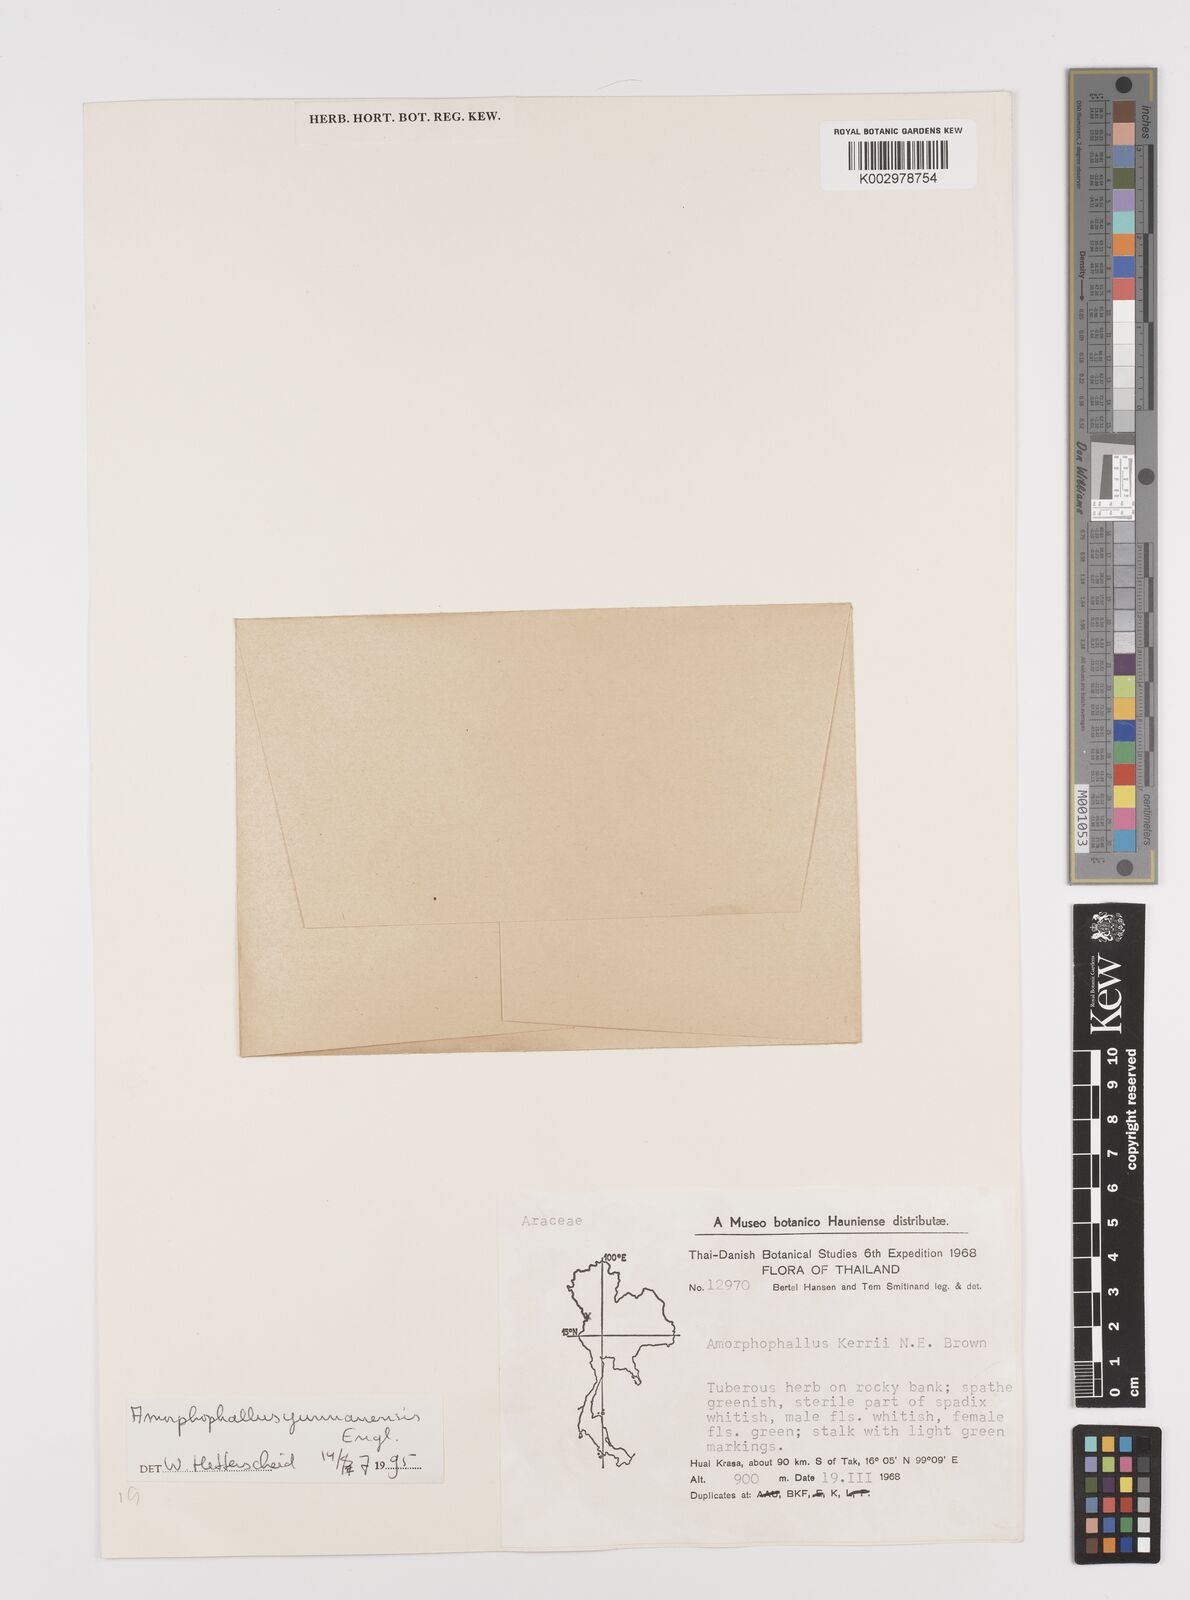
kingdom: Plantae
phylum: Tracheophyta
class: Liliopsida
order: Alismatales
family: Araceae
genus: Amorphophallus
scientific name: Amorphophallus yunnanensis
